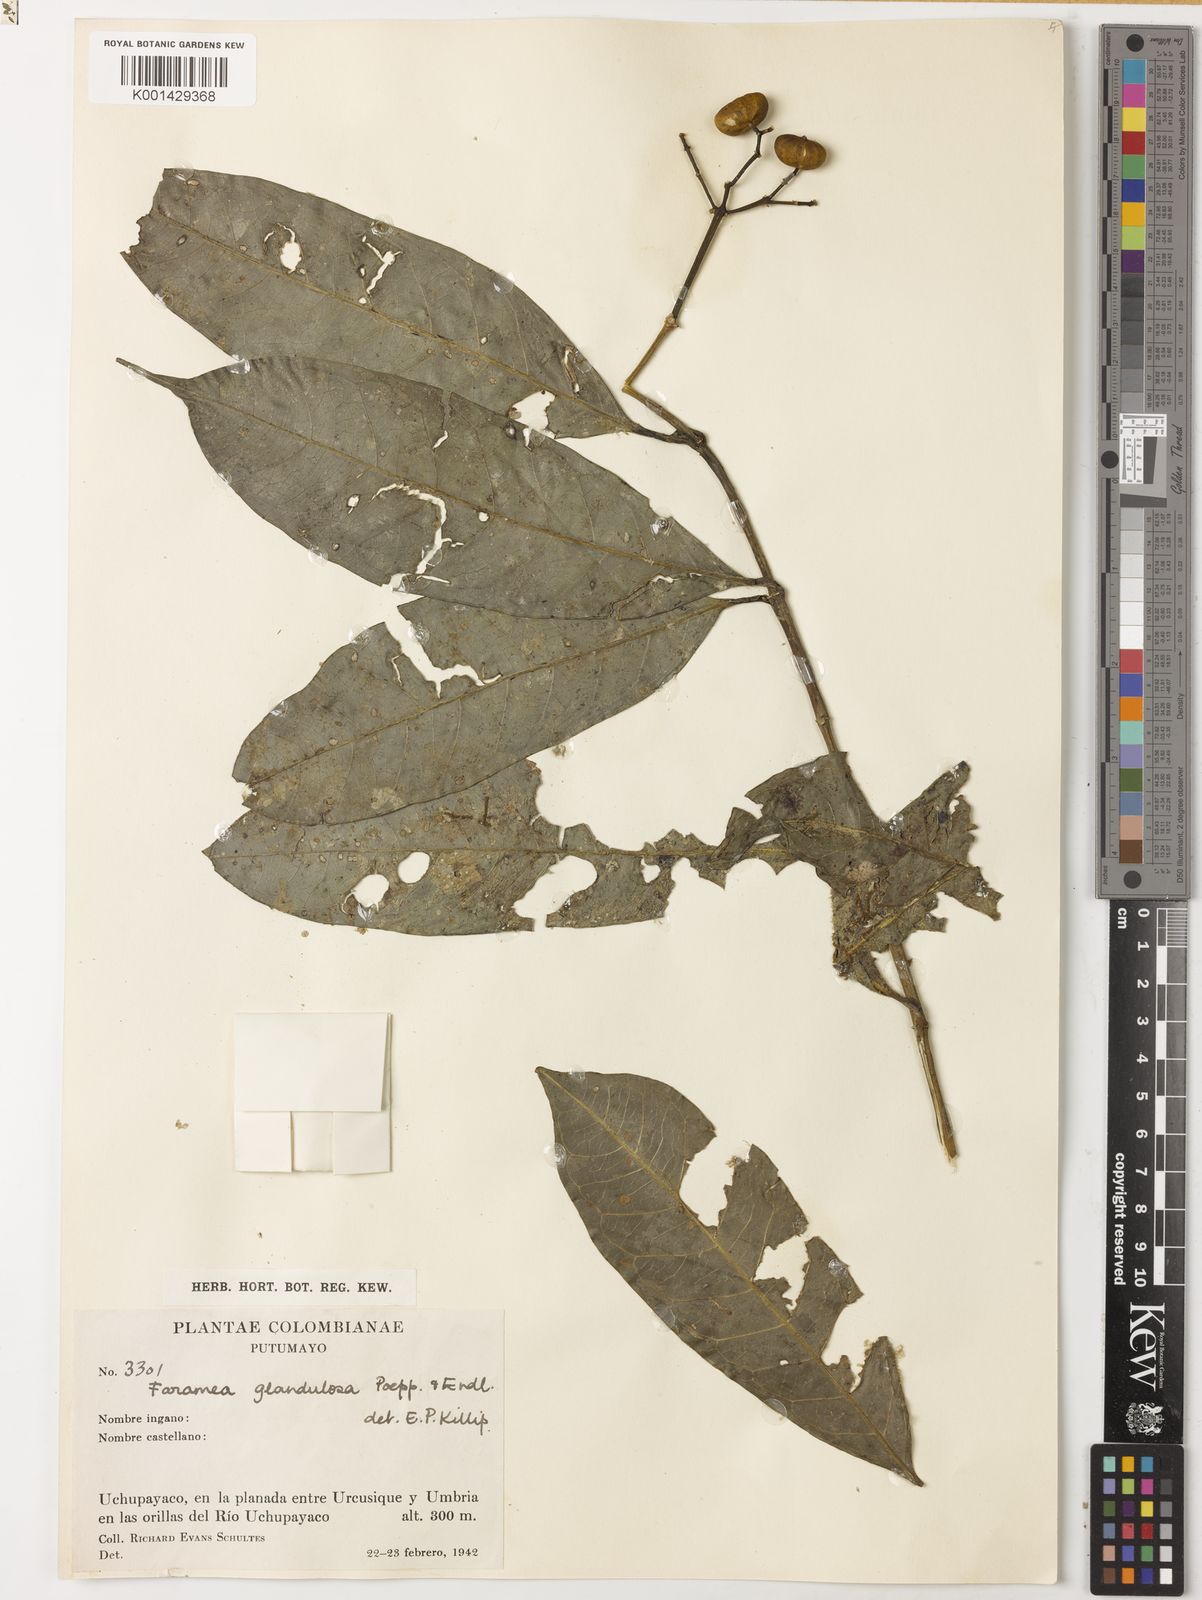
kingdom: Plantae
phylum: Tracheophyta
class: Magnoliopsida
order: Gentianales
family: Rubiaceae
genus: Faramea
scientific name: Faramea glandulosa
